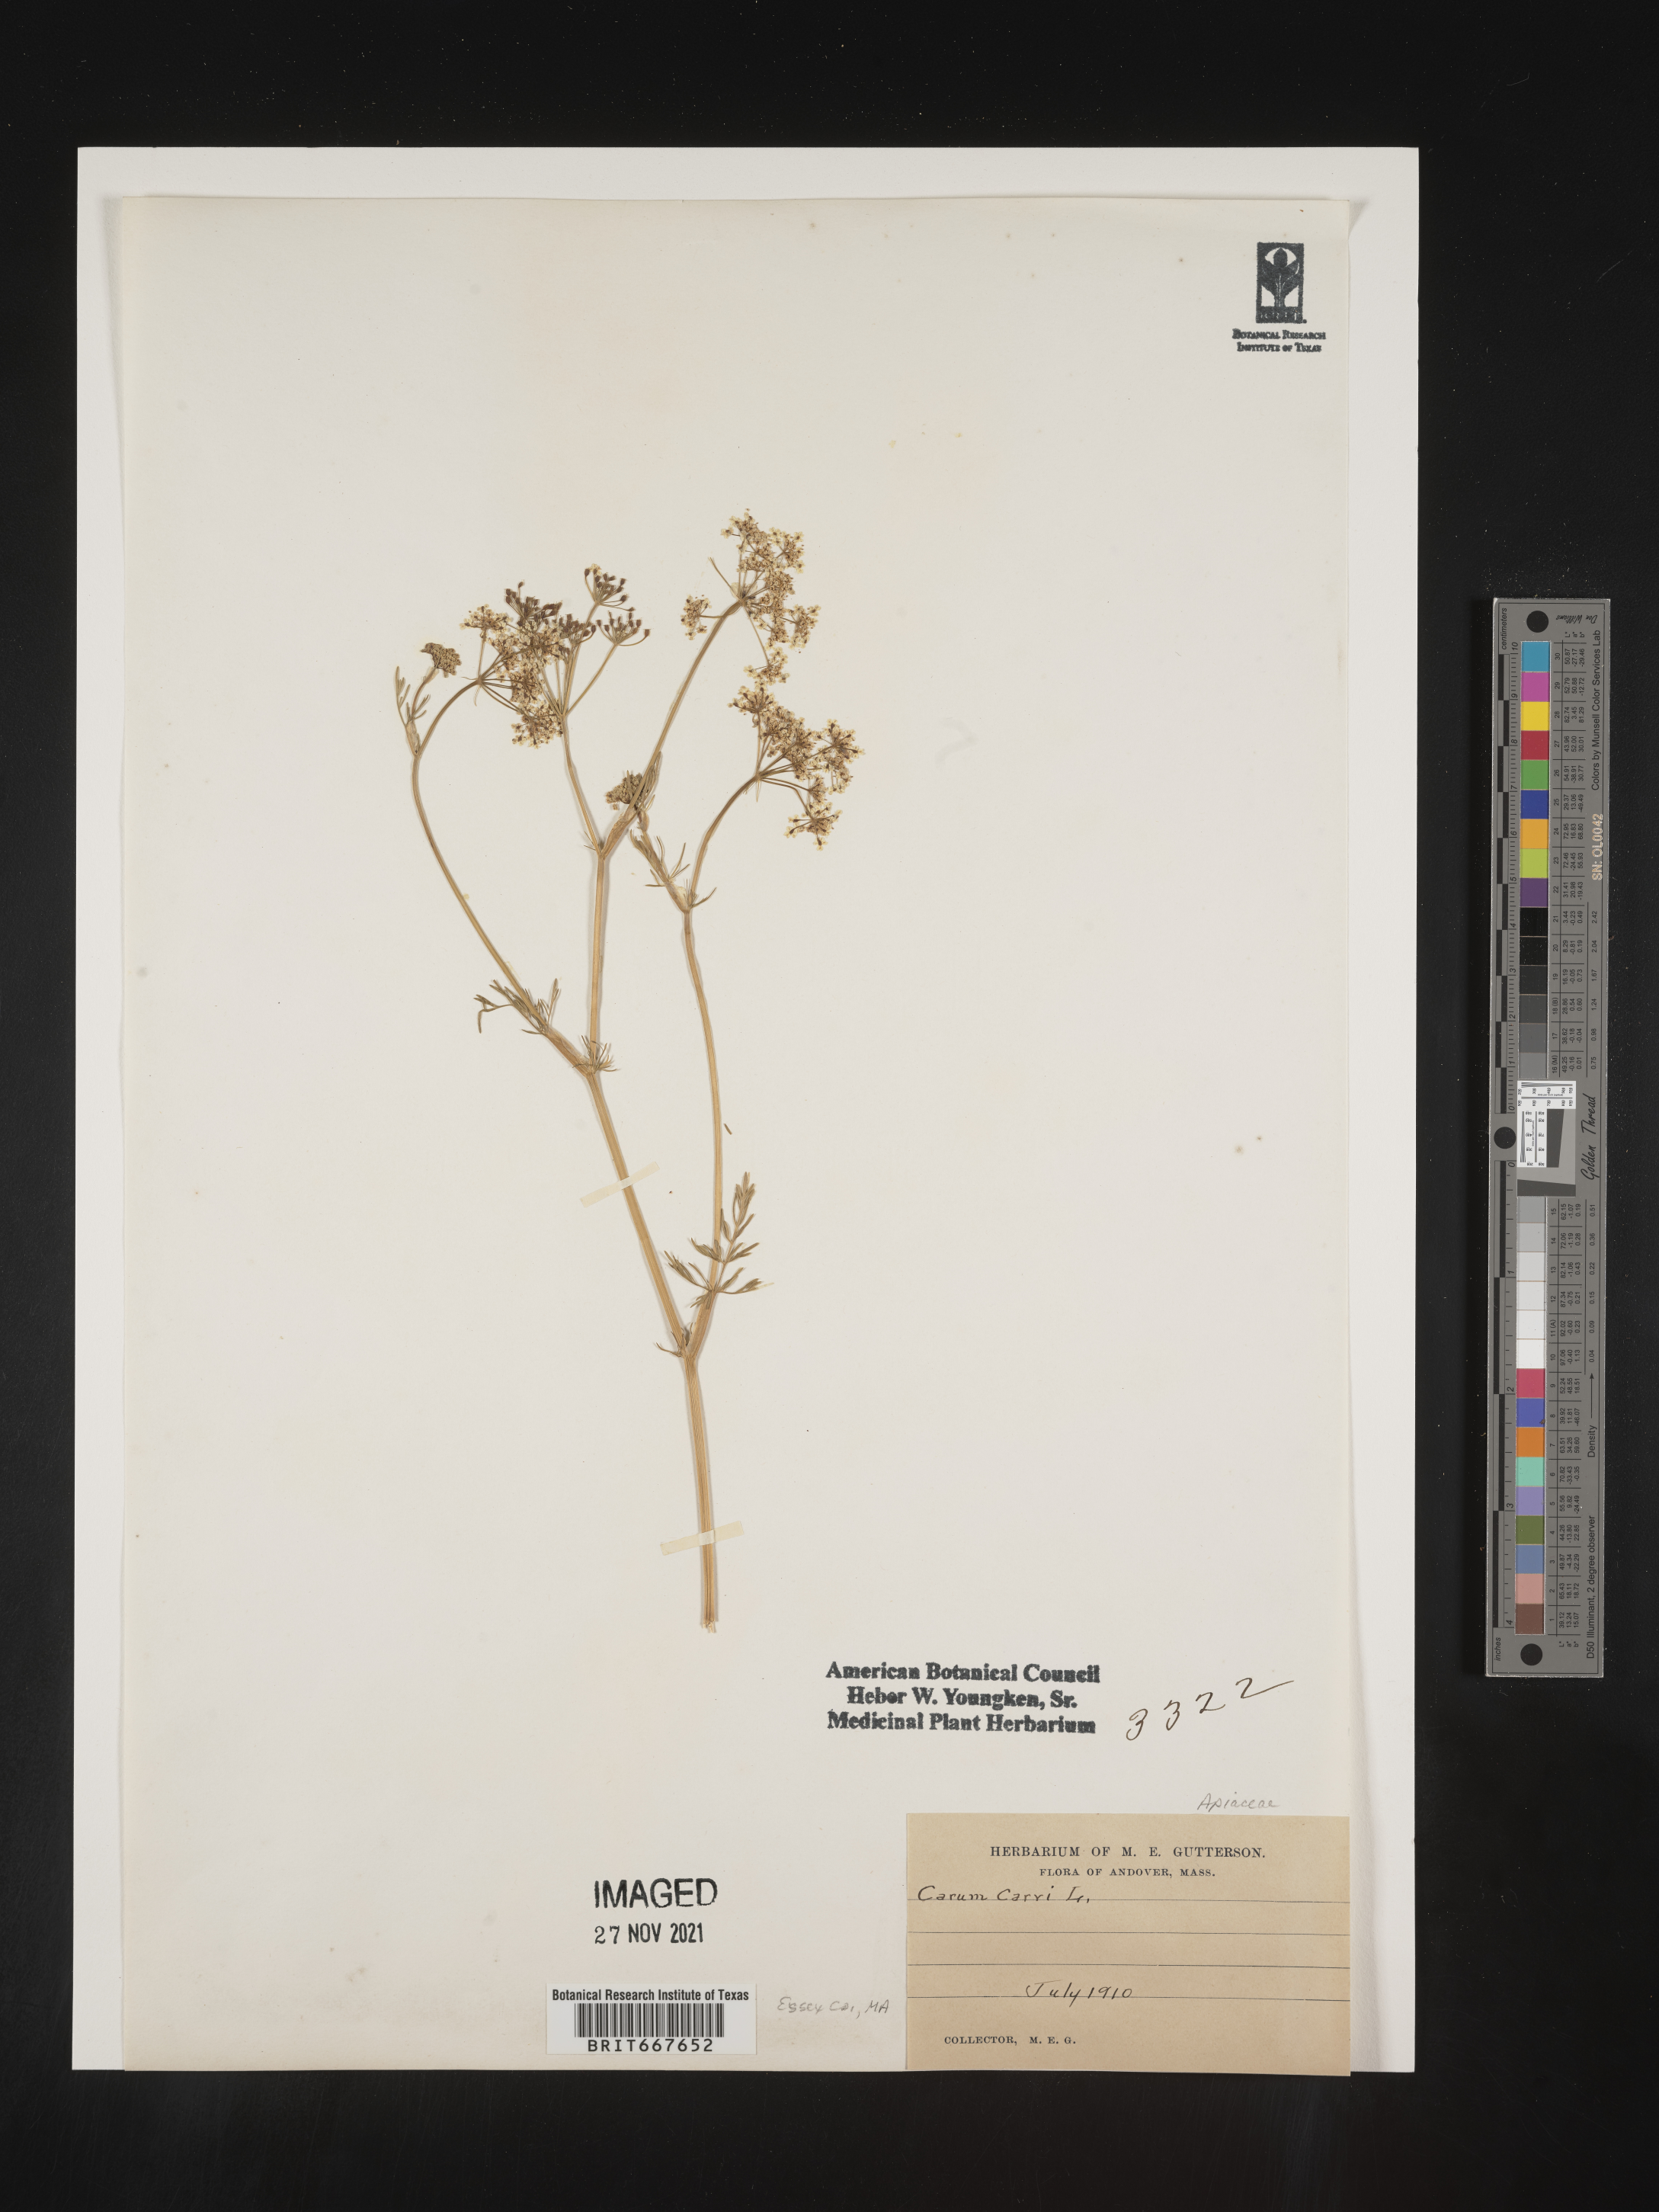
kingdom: Plantae
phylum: Tracheophyta
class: Magnoliopsida
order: Apiales
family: Apiaceae
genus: Carum
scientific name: Carum
